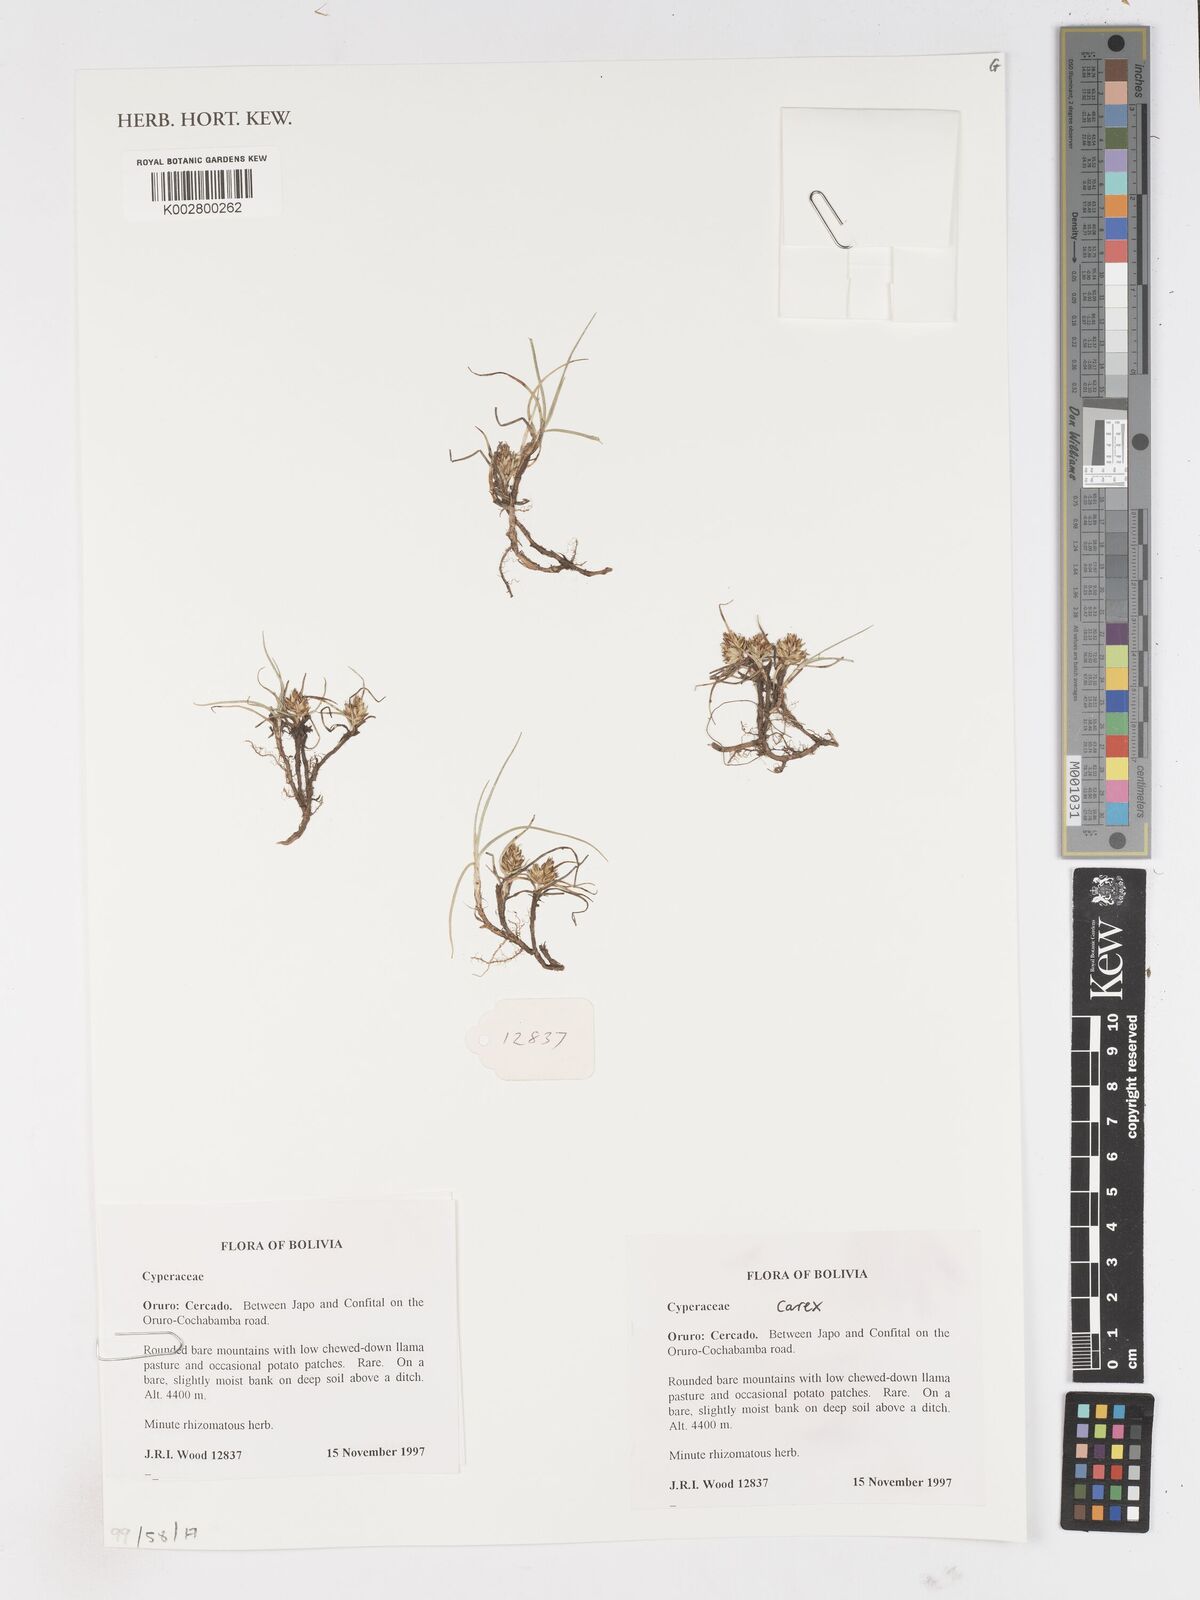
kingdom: Plantae
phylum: Tracheophyta
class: Liliopsida
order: Poales
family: Cyperaceae
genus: Carex
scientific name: Carex
